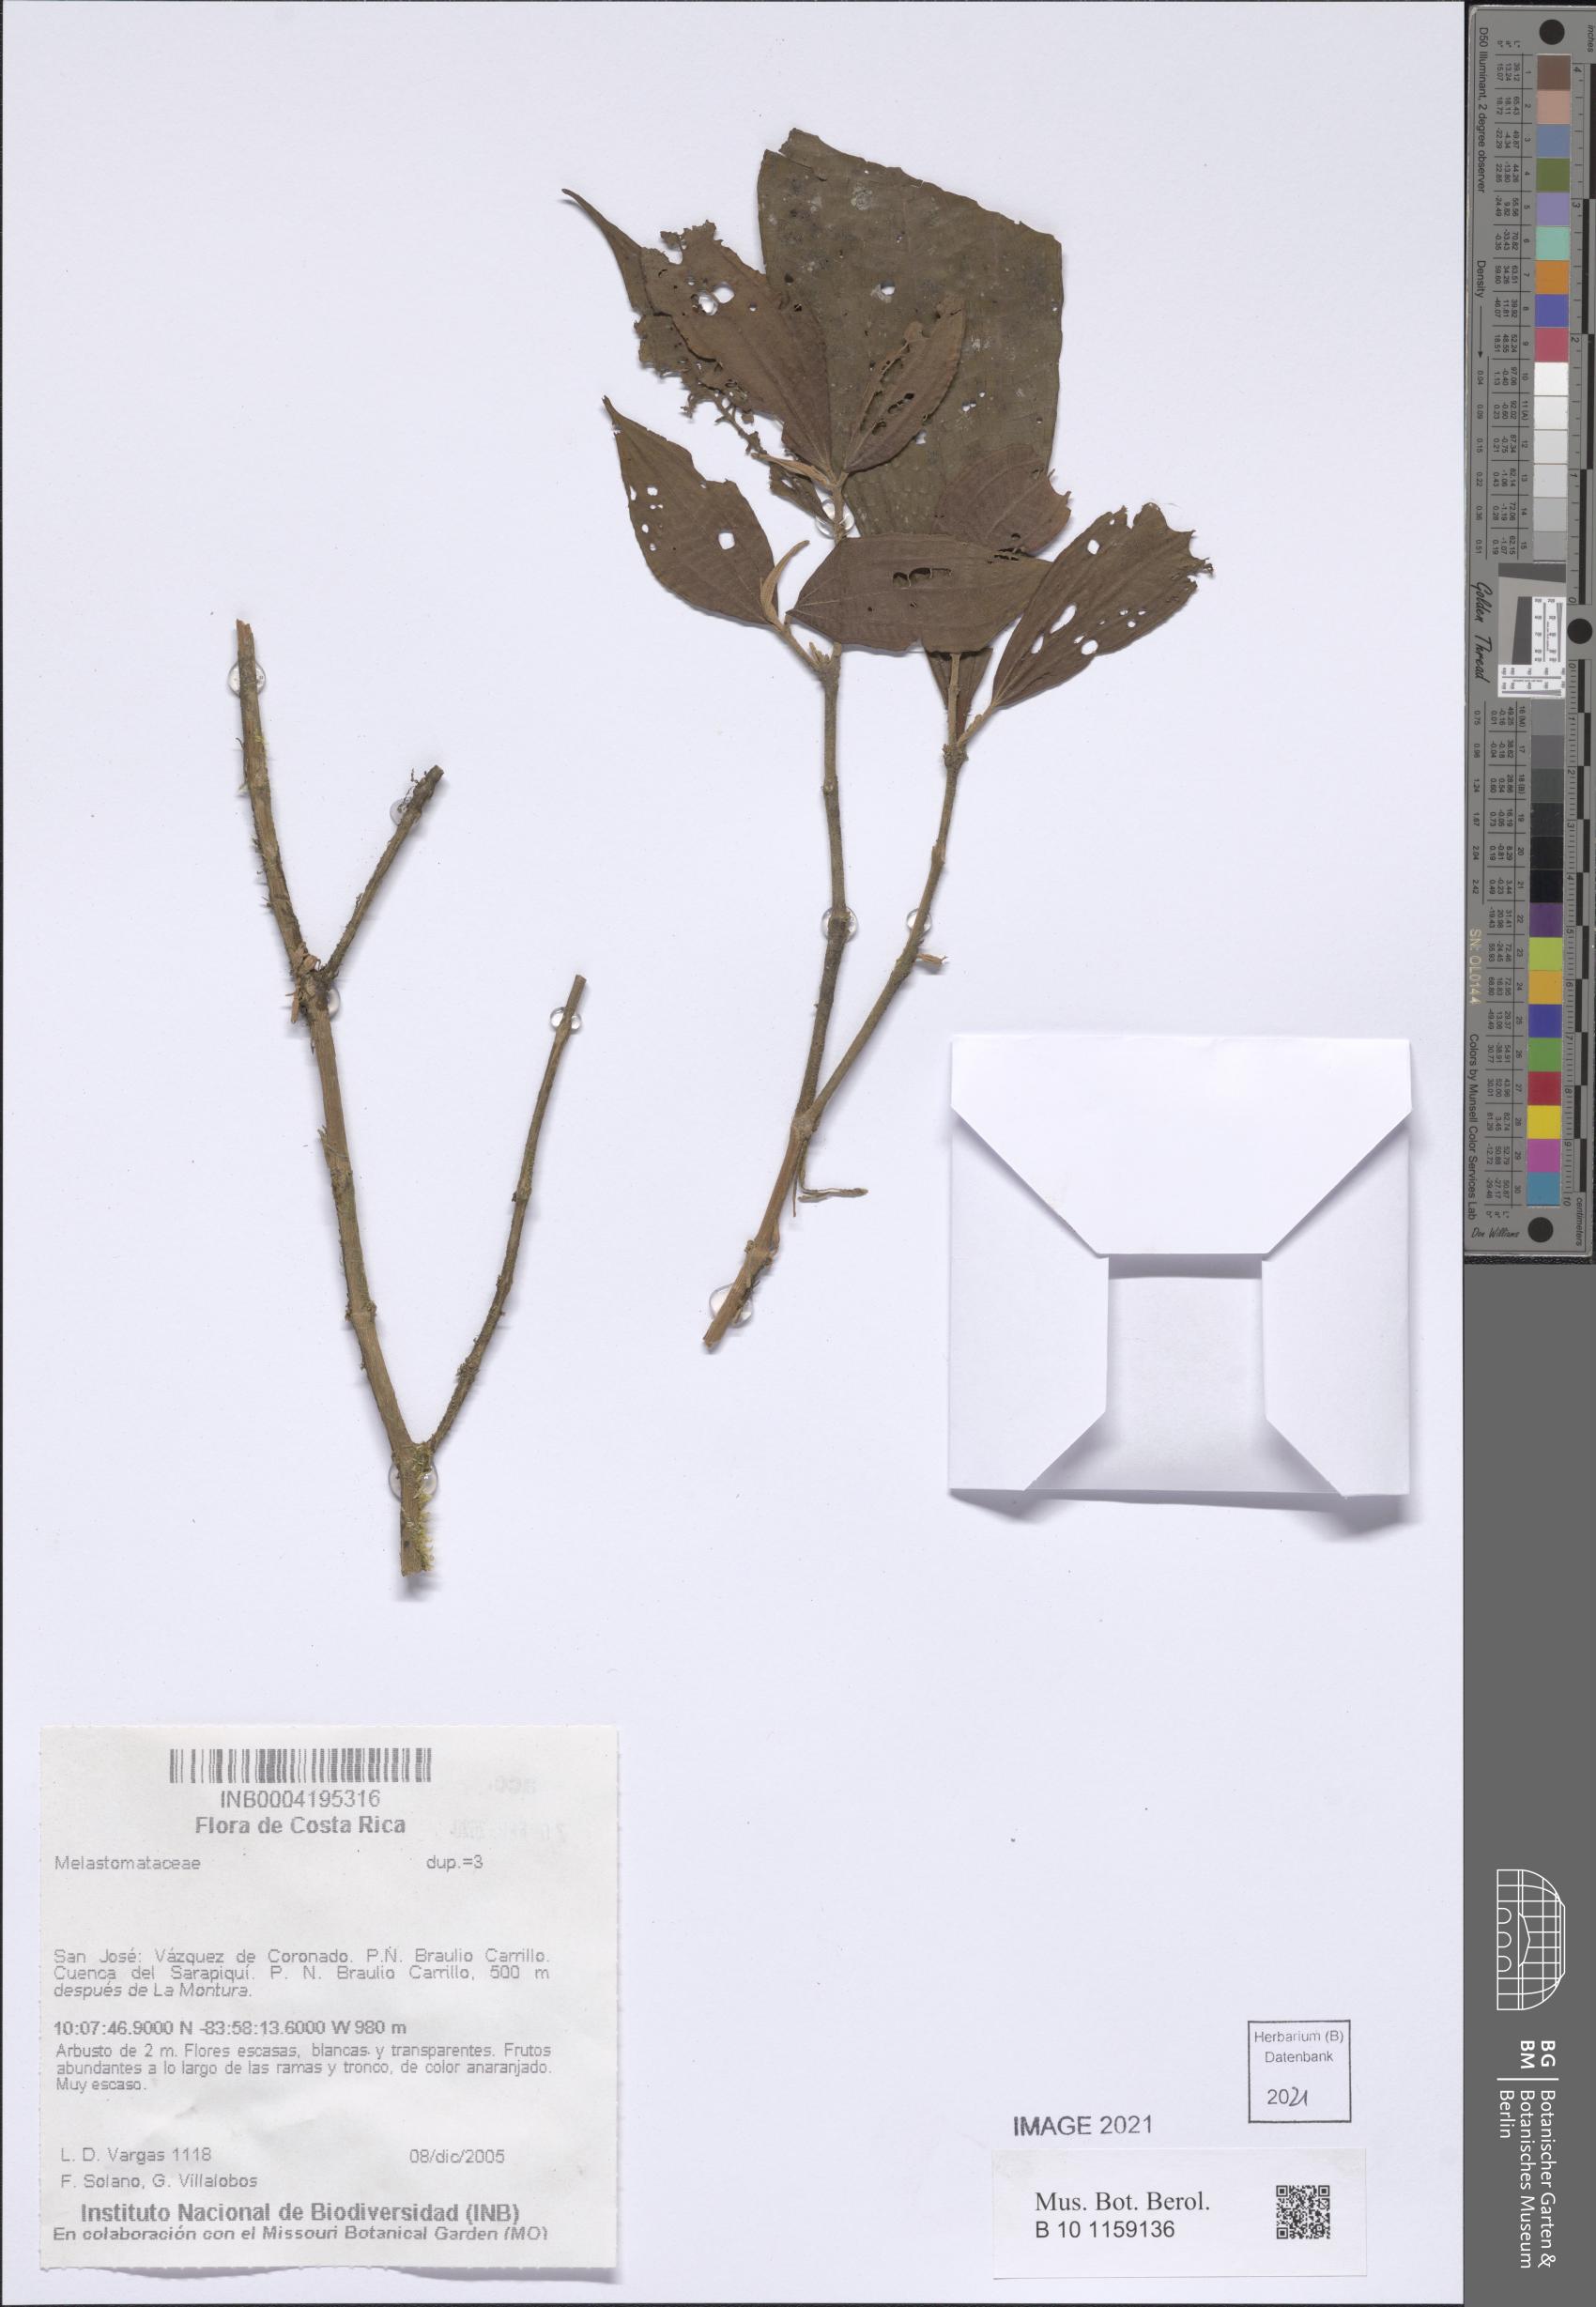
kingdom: Plantae
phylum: Tracheophyta
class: Magnoliopsida
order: Myrtales
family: Melastomataceae
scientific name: Melastomataceae
